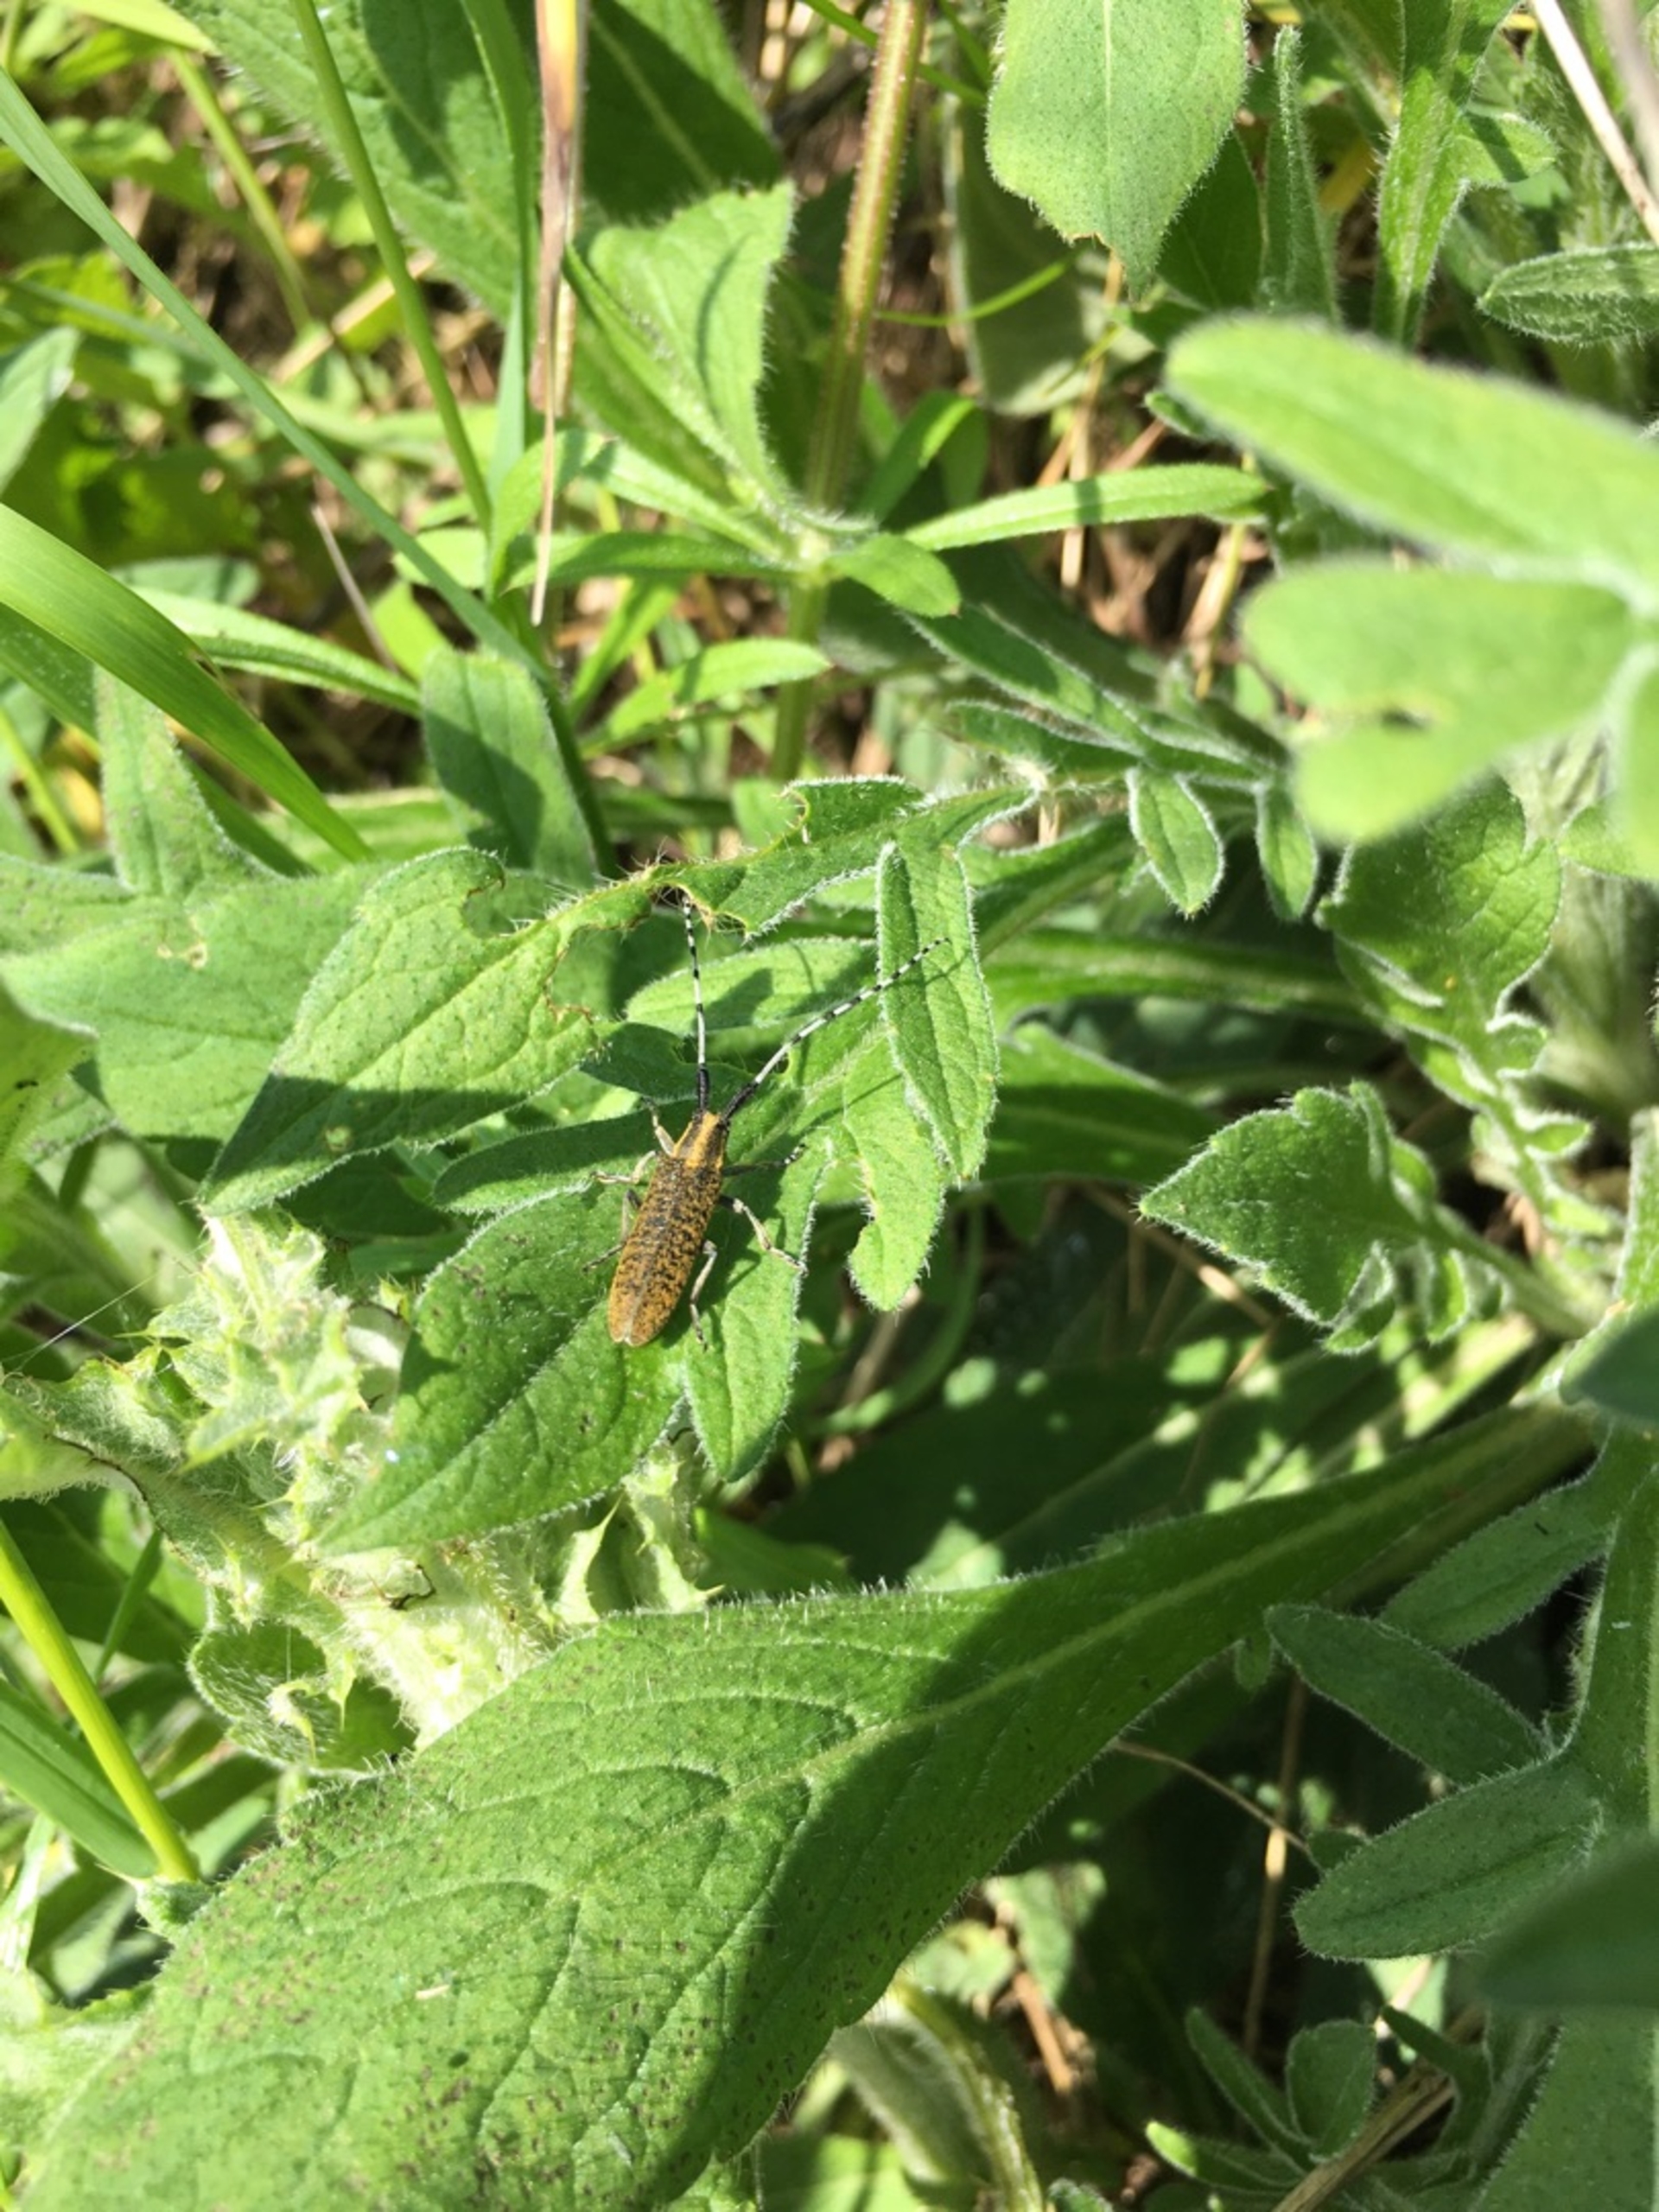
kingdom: Animalia
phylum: Arthropoda
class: Insecta
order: Coleoptera
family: Cerambycidae
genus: Agapanthia
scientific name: Agapanthia villosoviridescens
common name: Tidselbuk
